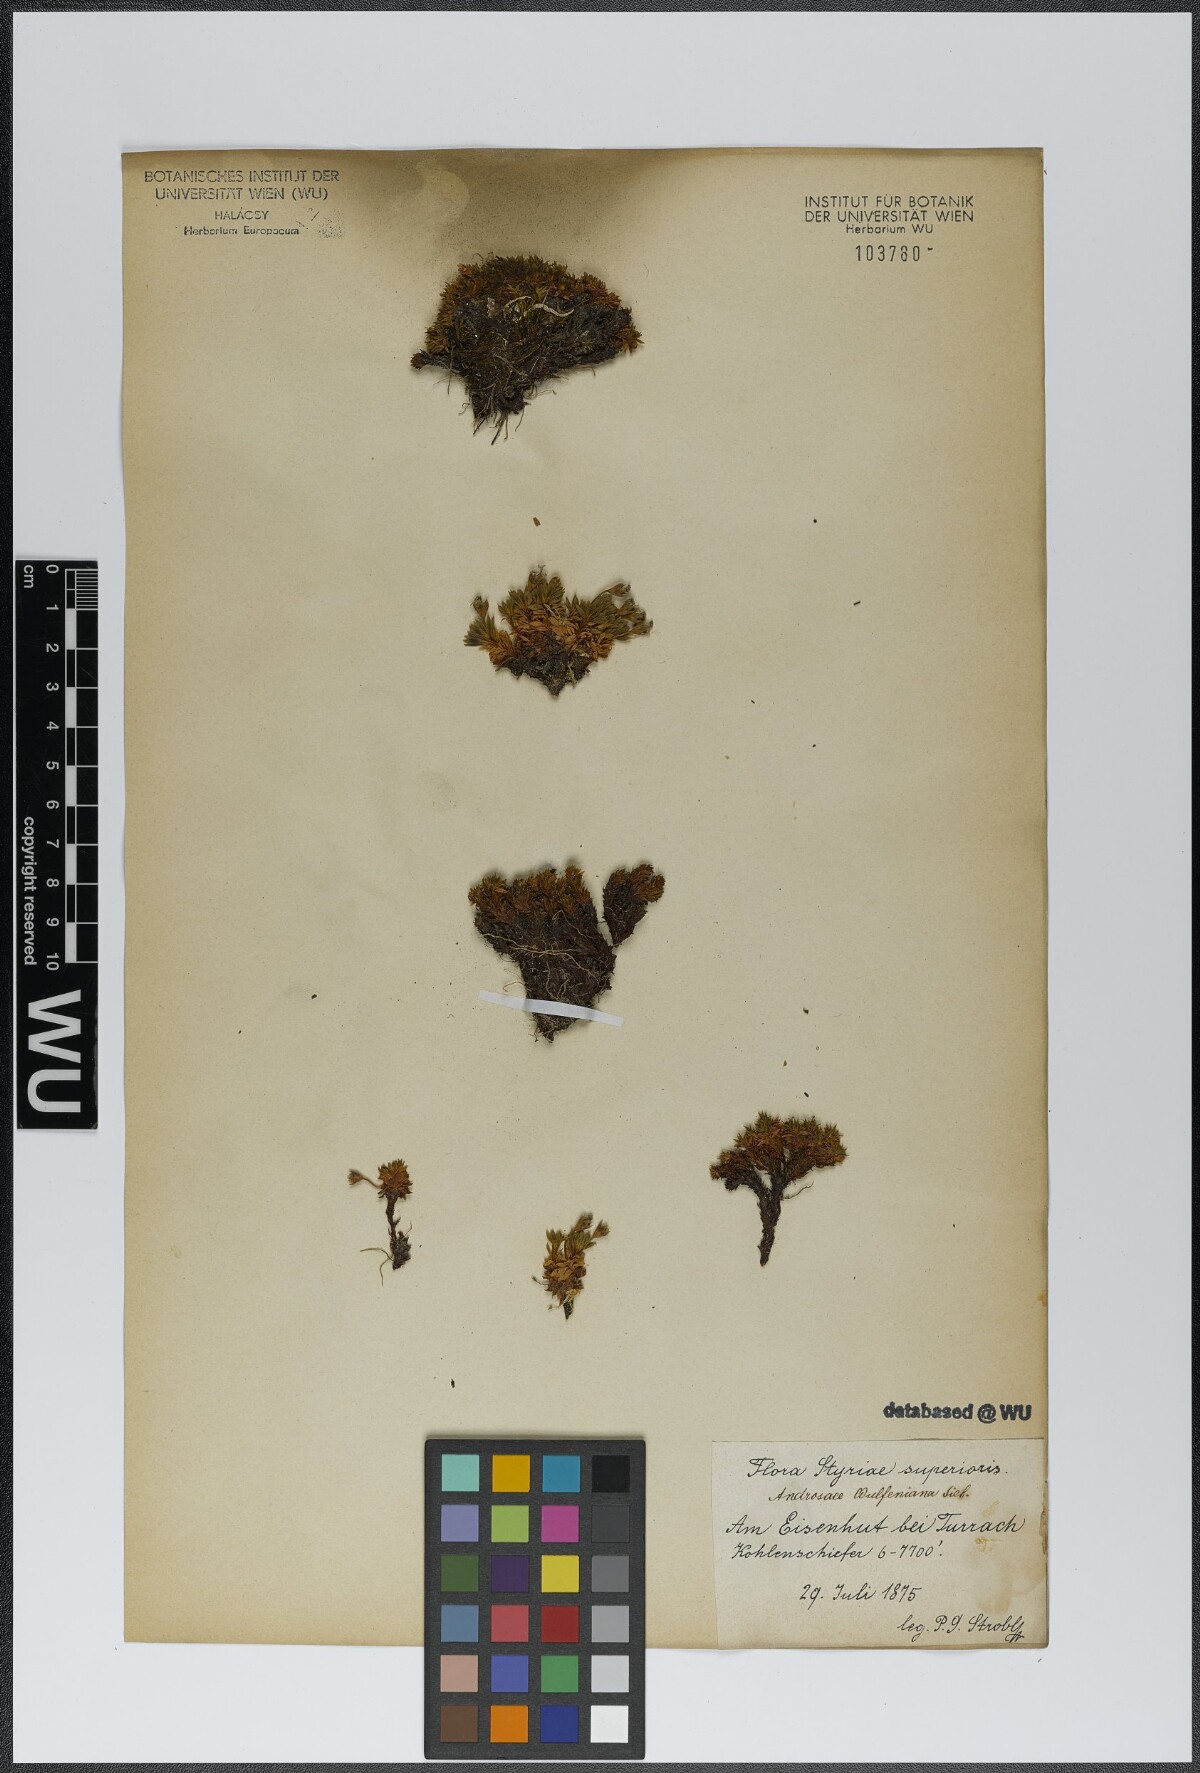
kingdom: Plantae
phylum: Tracheophyta
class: Magnoliopsida
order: Ericales
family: Primulaceae
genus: Androsace
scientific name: Androsace wulfeniana
